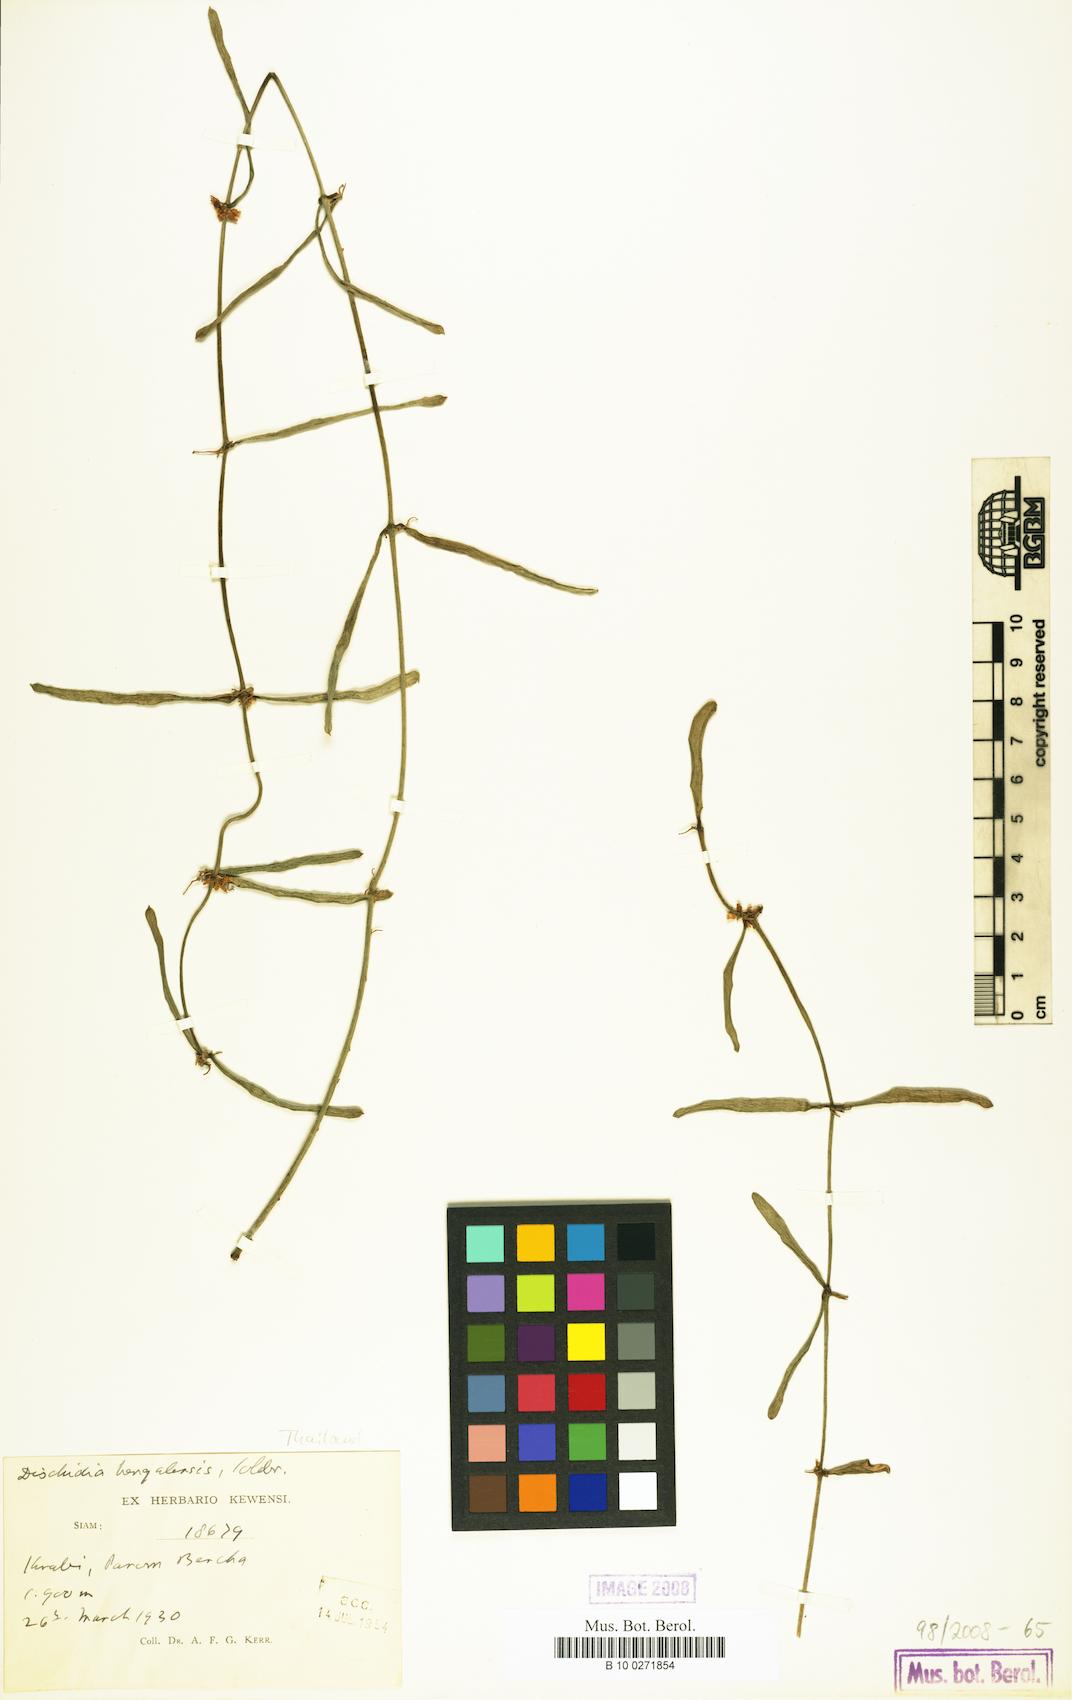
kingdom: Plantae
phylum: Tracheophyta
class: Magnoliopsida
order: Gentianales
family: Apocynaceae
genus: Dischidia
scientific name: Dischidia bengalensis
